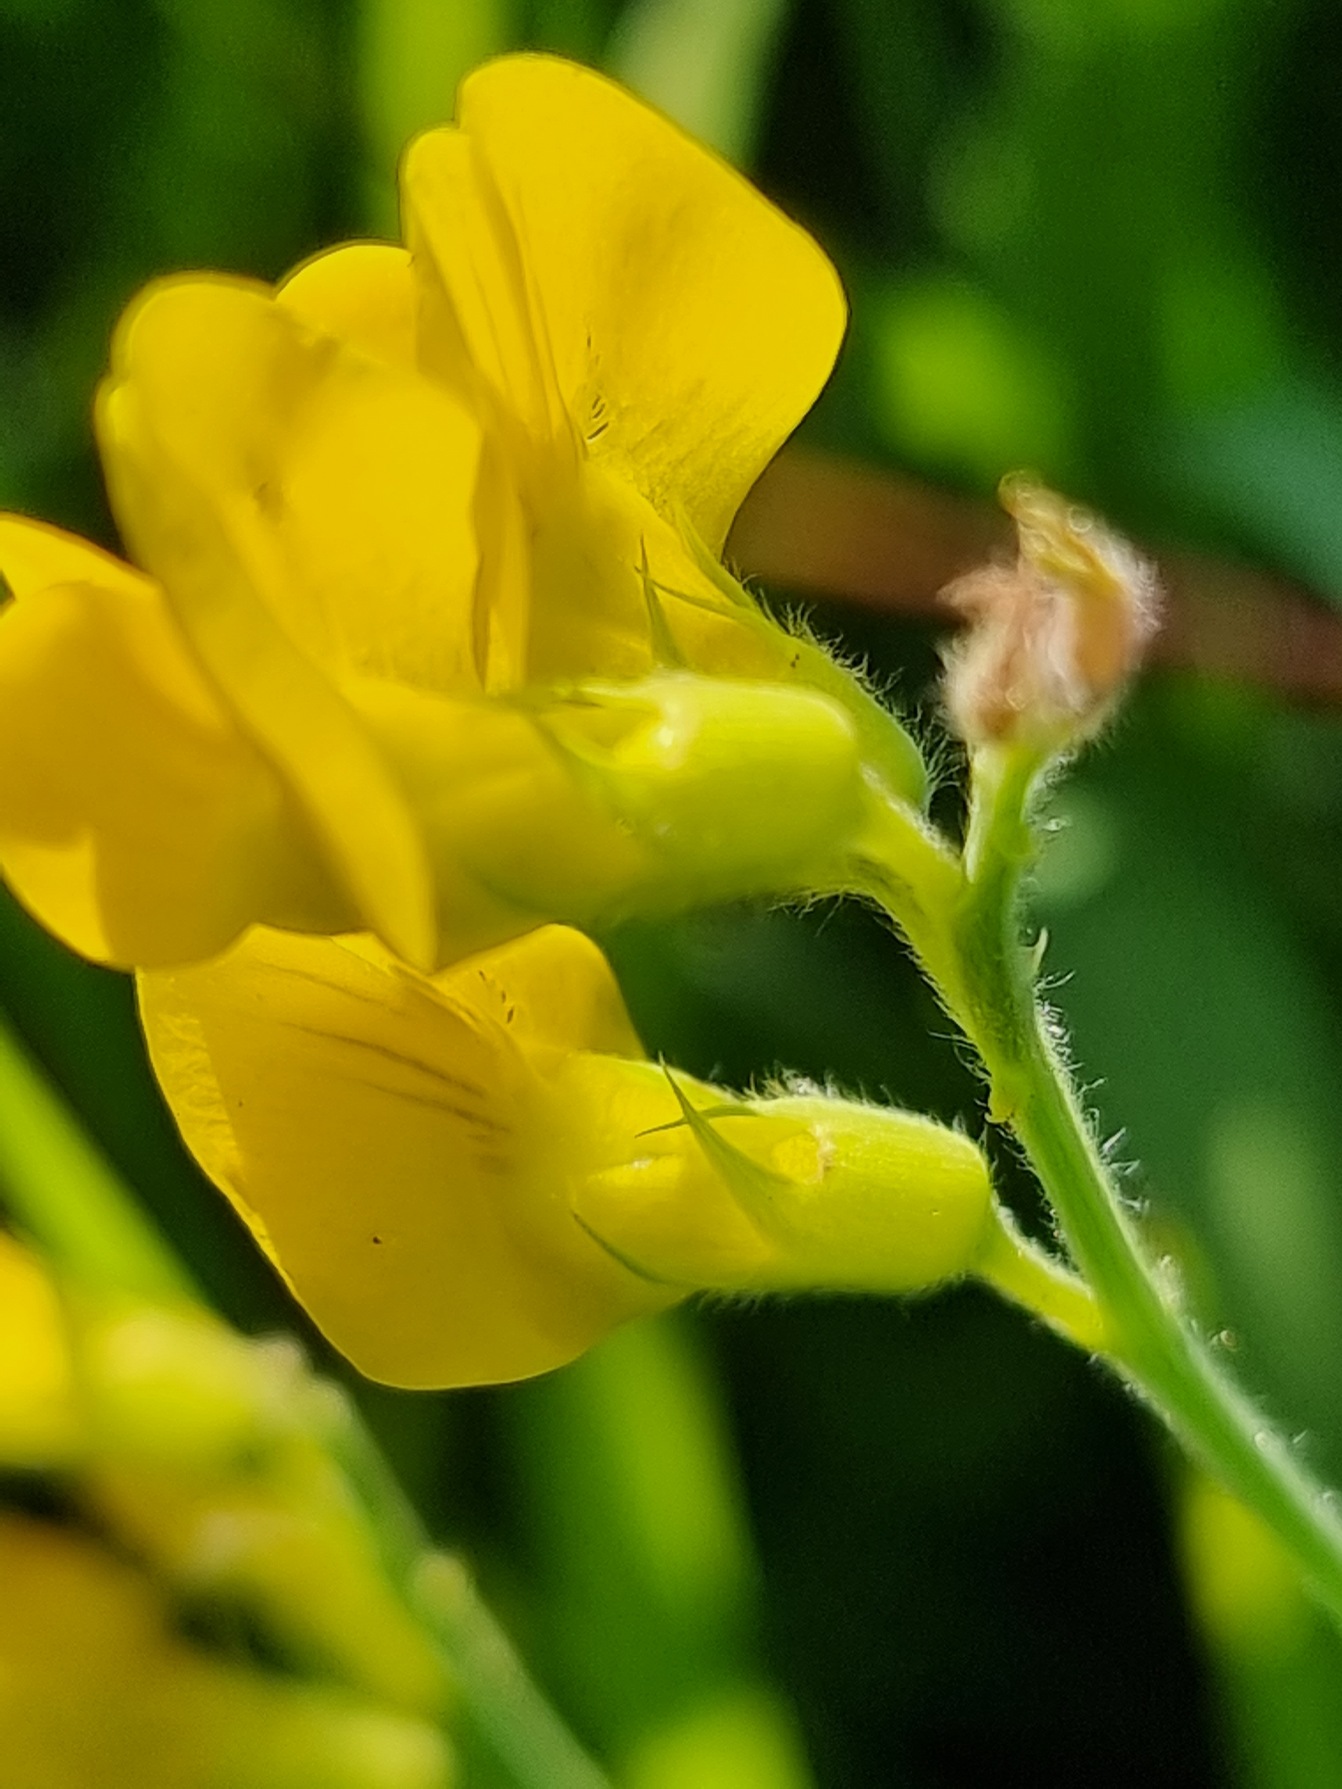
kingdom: Plantae
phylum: Tracheophyta
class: Magnoliopsida
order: Fabales
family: Fabaceae
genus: Lathyrus
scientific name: Lathyrus pratensis
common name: Gul fladbælg
